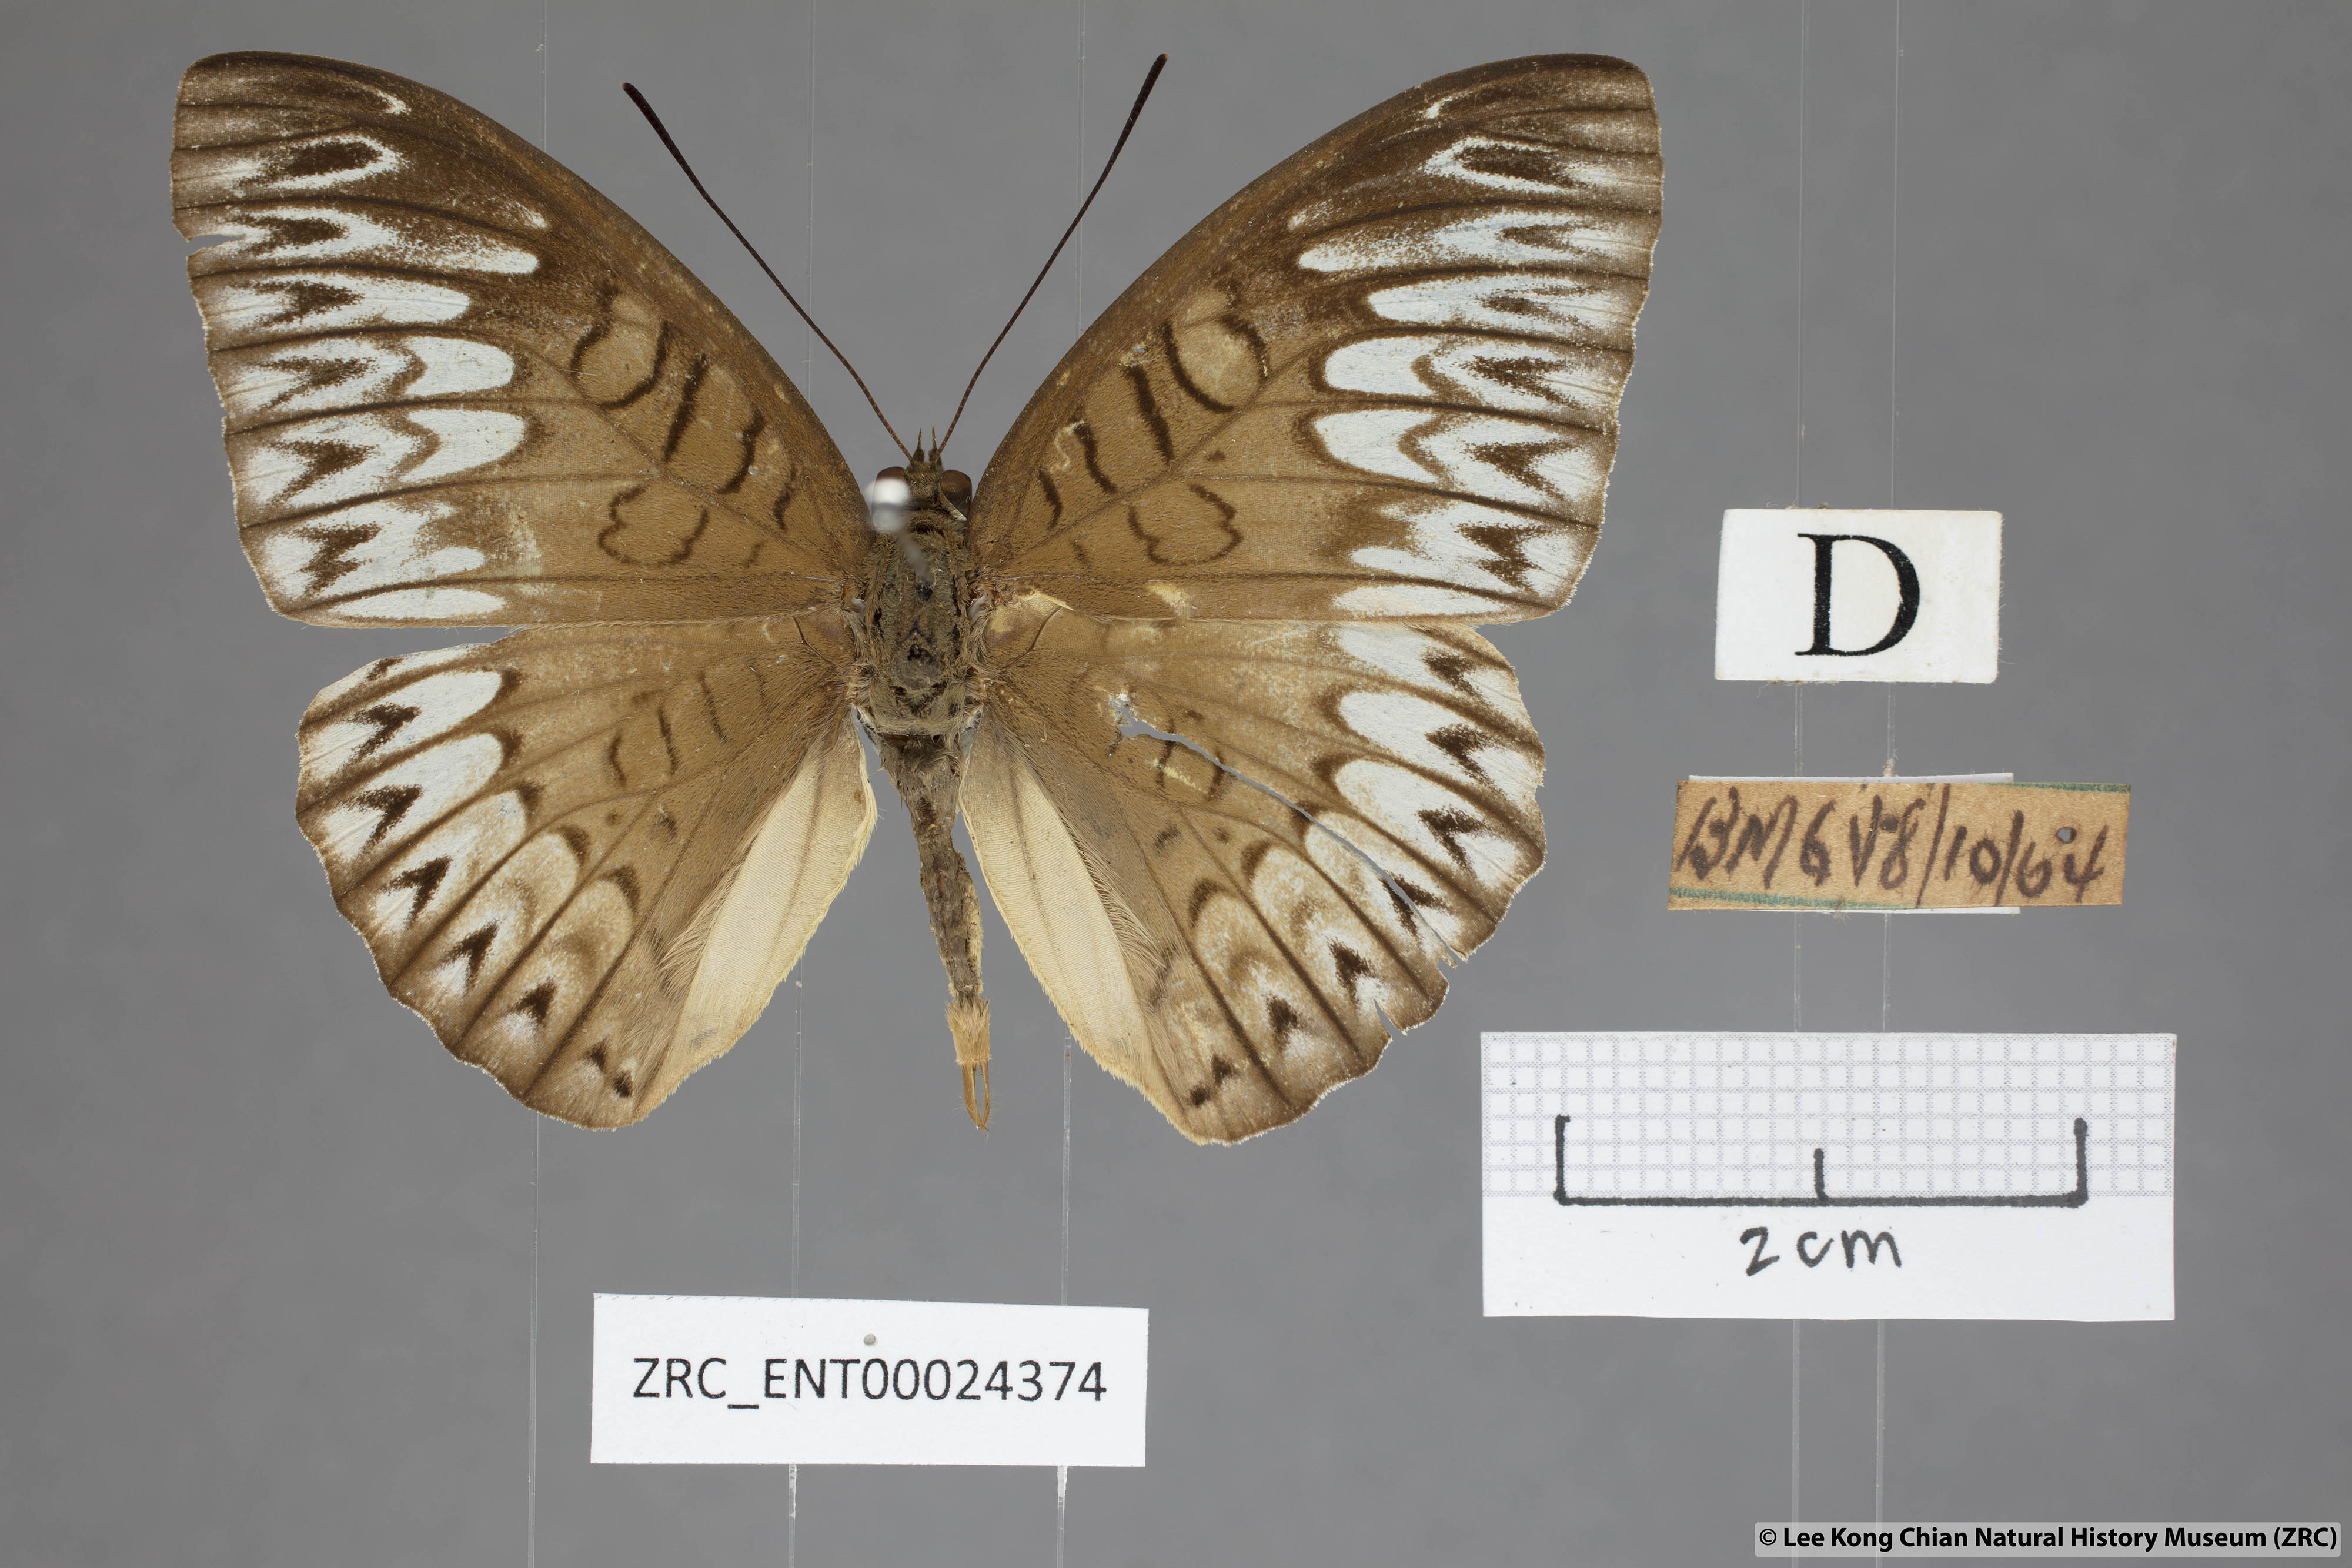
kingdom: Animalia
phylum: Arthropoda
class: Insecta
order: Lepidoptera
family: Nymphalidae
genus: Tanaecia
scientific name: Tanaecia aruna
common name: Short-banded viscount
